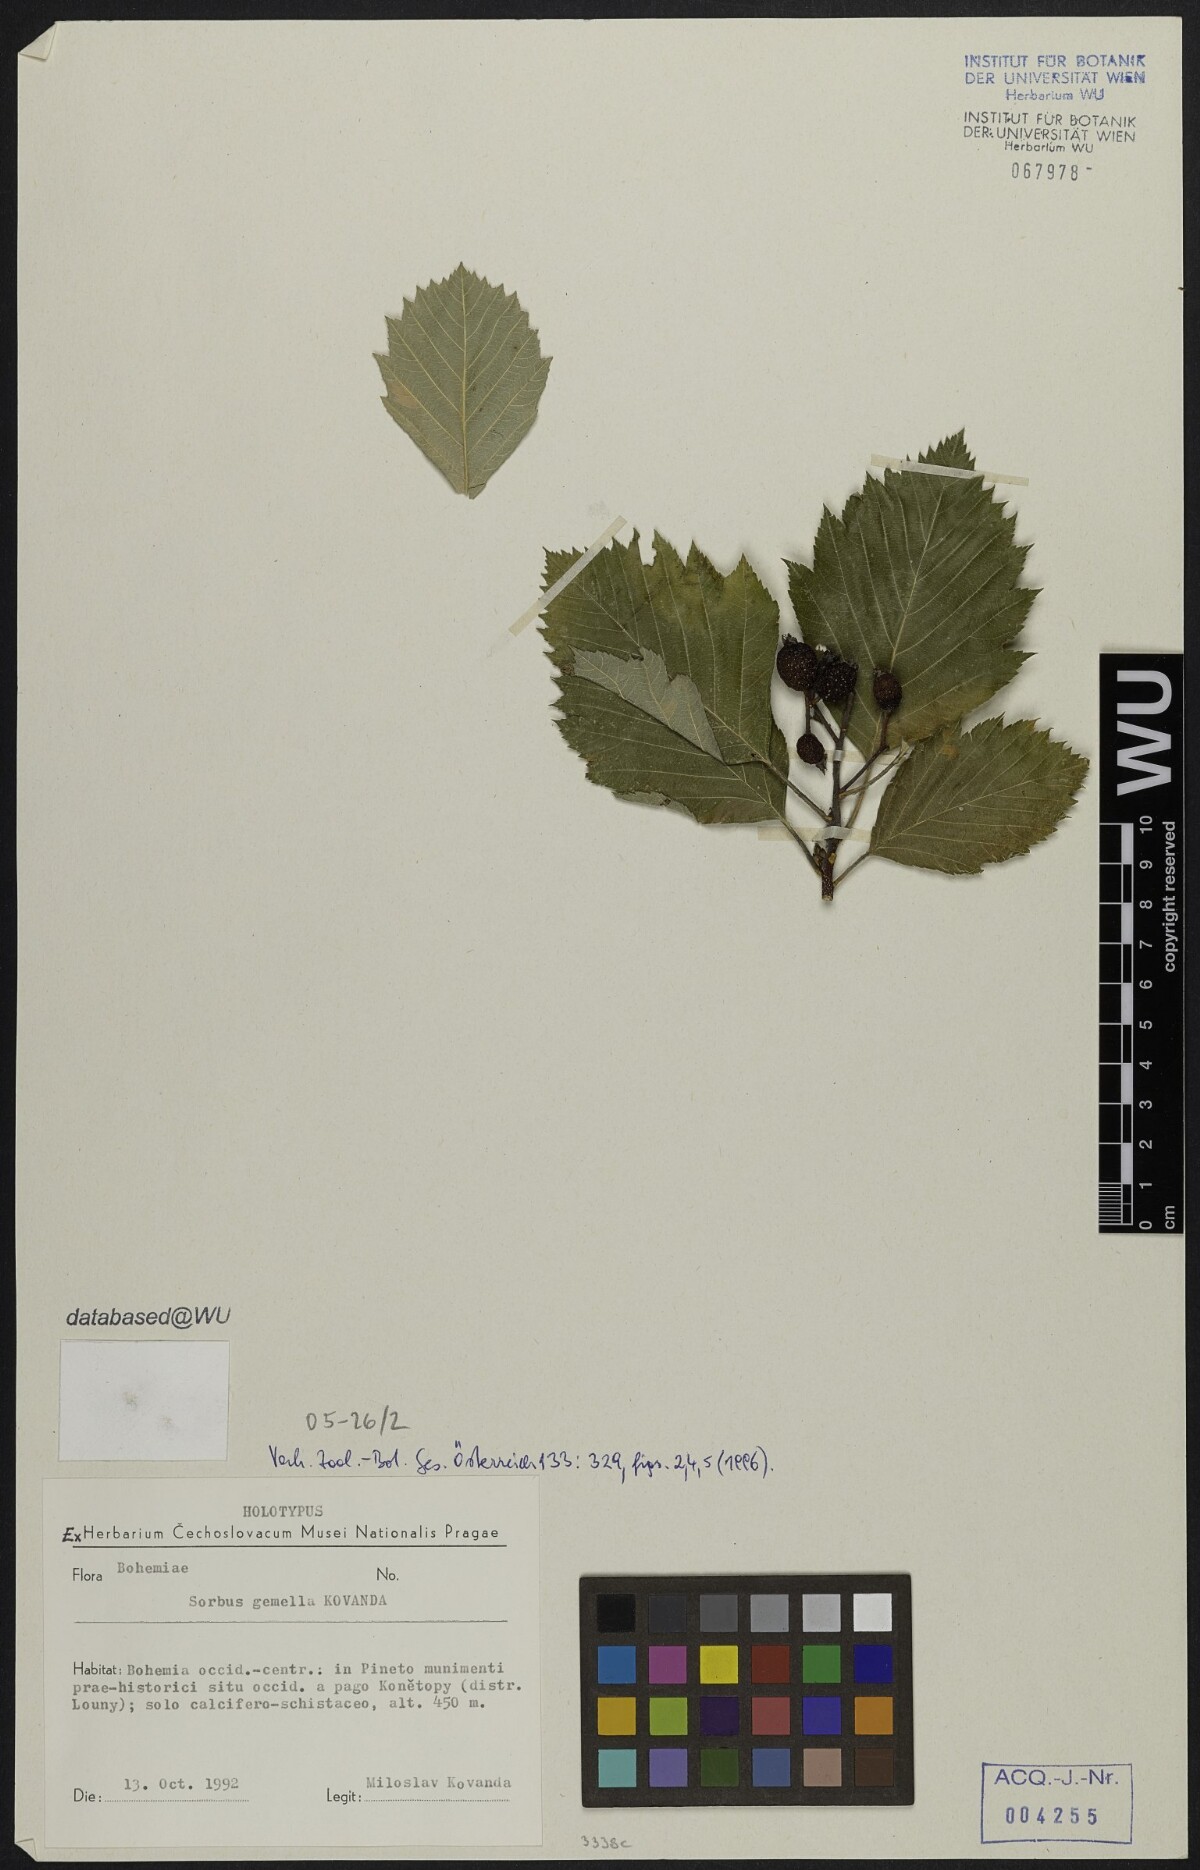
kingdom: Plantae
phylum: Tracheophyta
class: Magnoliopsida
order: Rosales
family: Rosaceae
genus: Karpatiosorbus
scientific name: Karpatiosorbus gemella
